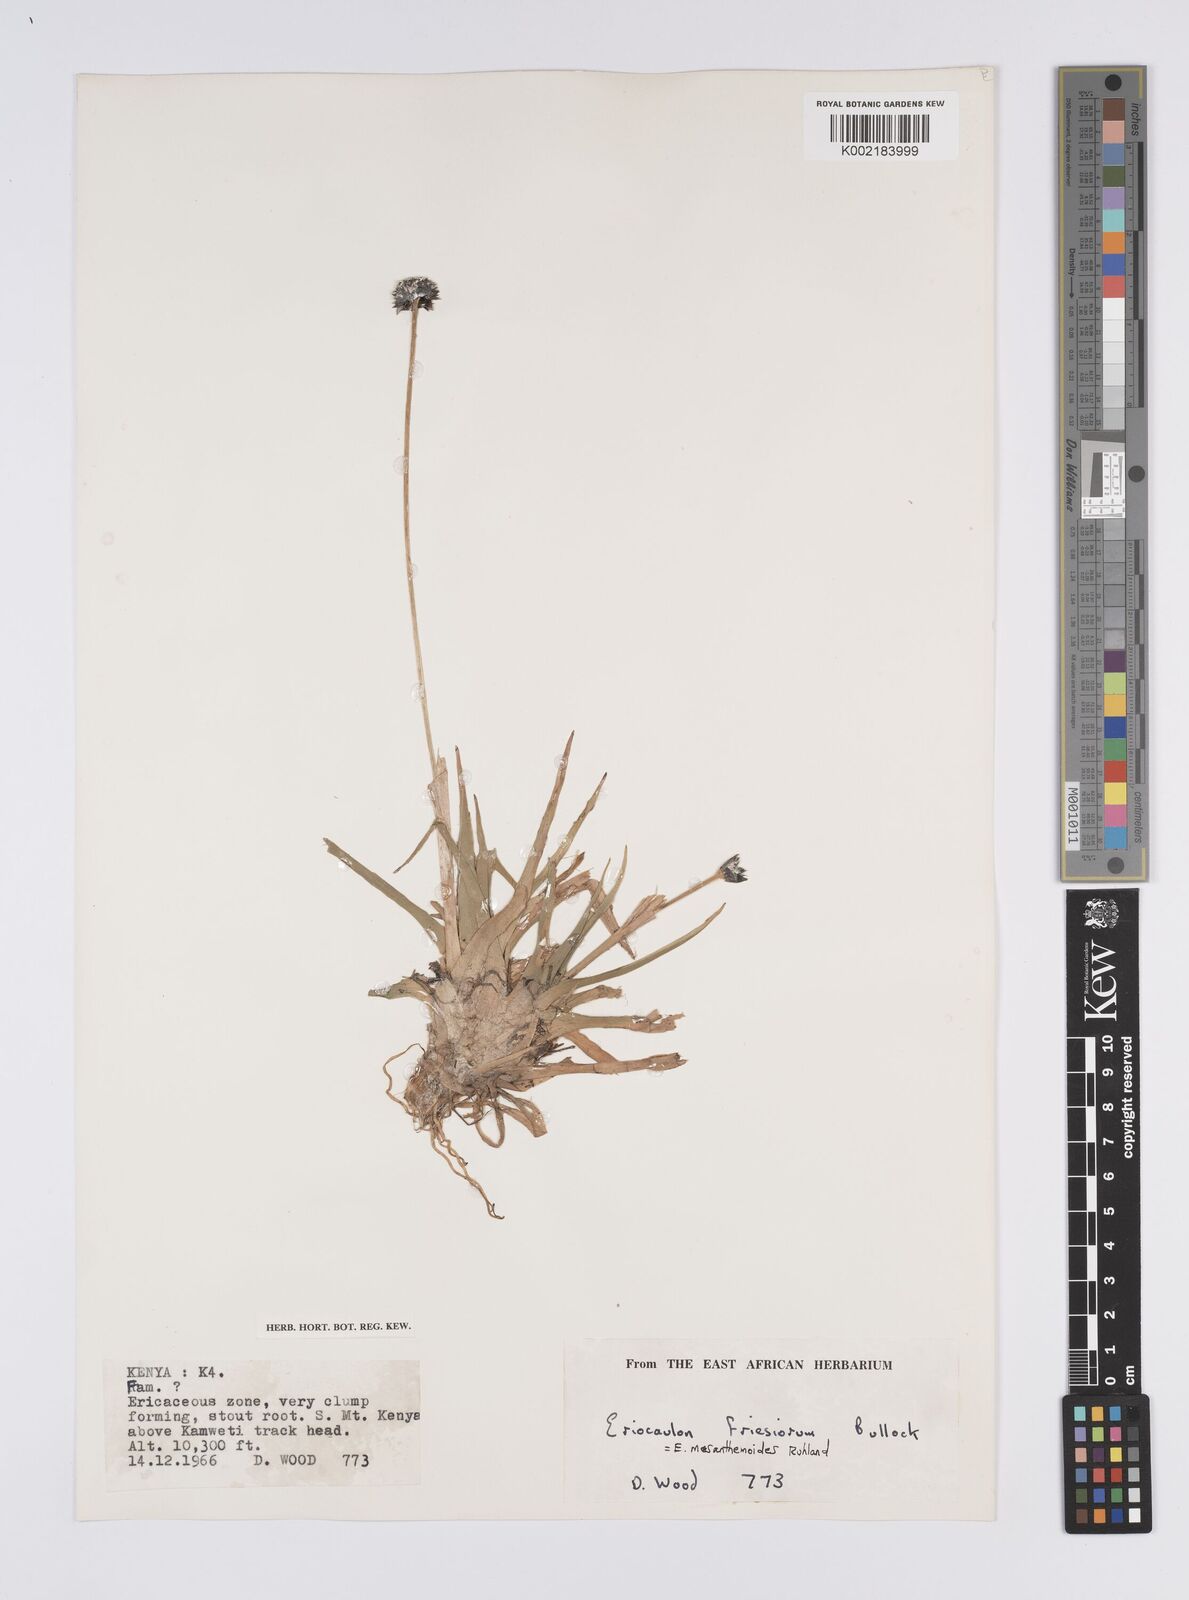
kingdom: Plantae
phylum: Tracheophyta
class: Liliopsida
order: Poales
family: Eriocaulaceae
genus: Eriocaulon
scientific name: Eriocaulon mesanthemoides
